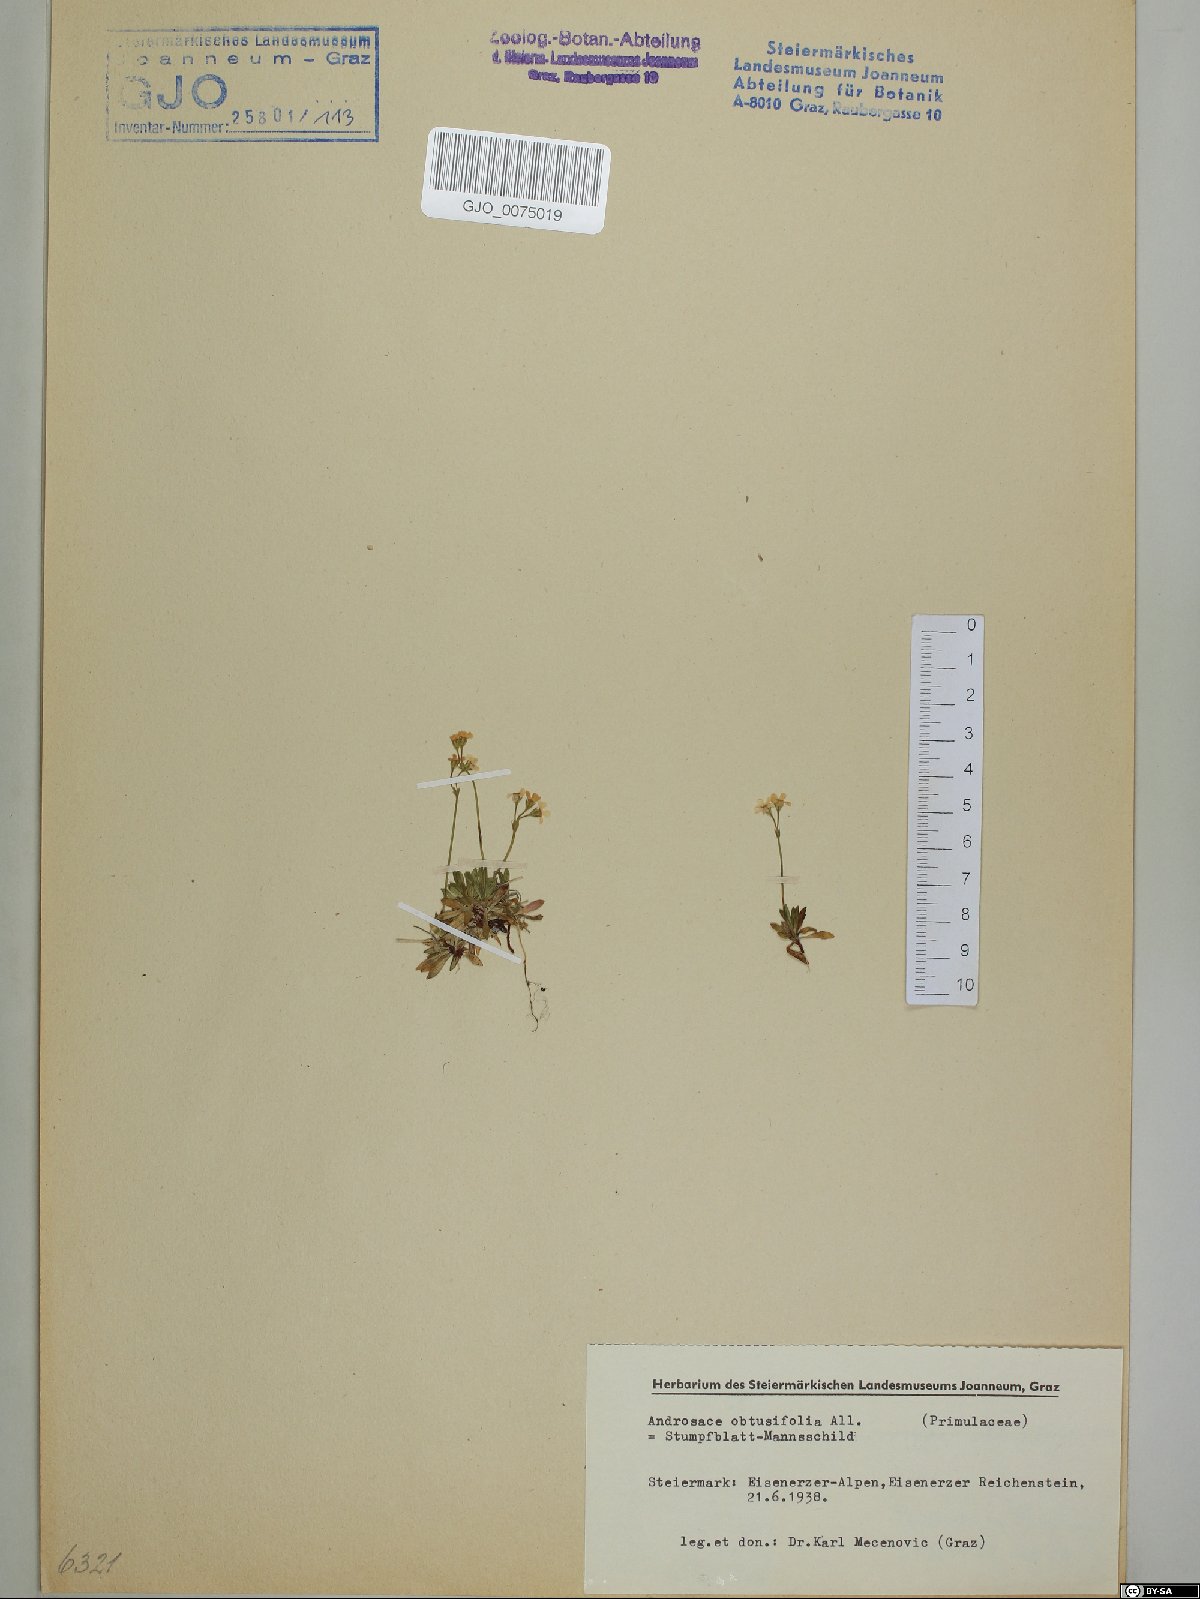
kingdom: Plantae
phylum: Tracheophyta
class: Magnoliopsida
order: Ericales
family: Primulaceae
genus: Androsace
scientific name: Androsace obtusifolia
